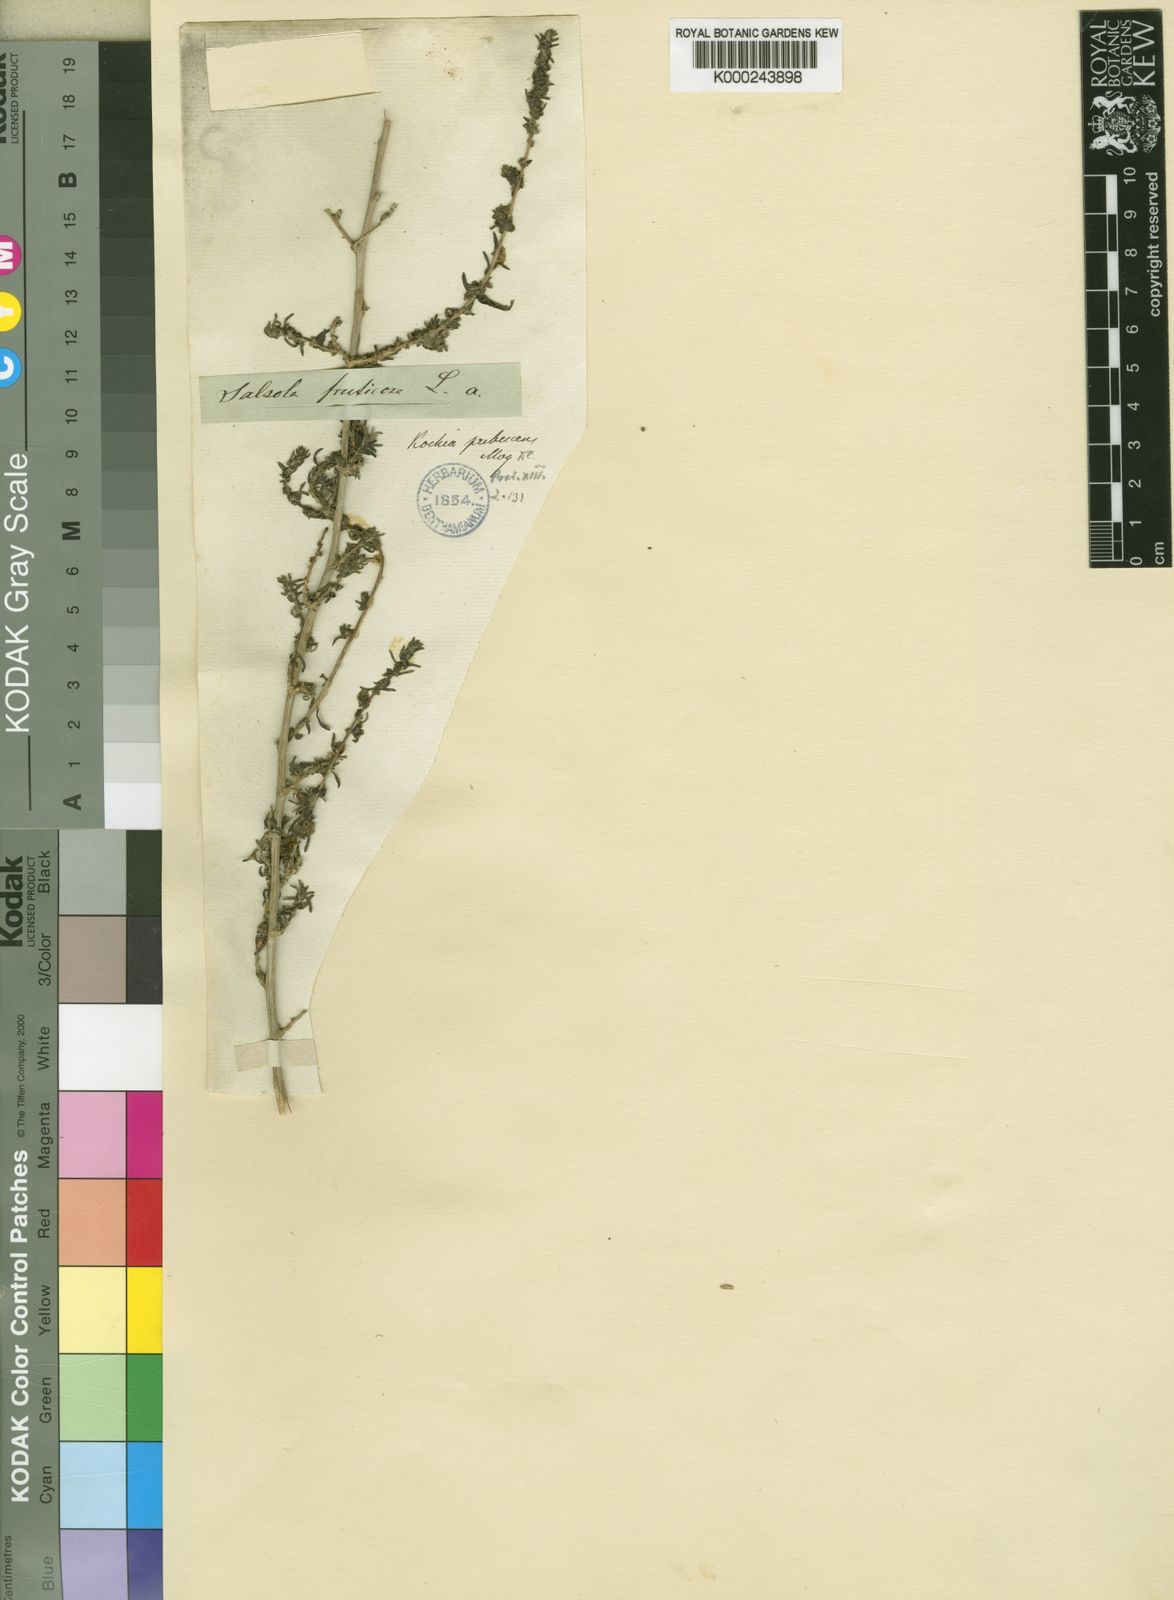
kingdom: Plantae
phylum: Tracheophyta
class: Magnoliopsida
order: Caryophyllales
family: Amaranthaceae
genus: Bassia
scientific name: Bassia salsoloides
